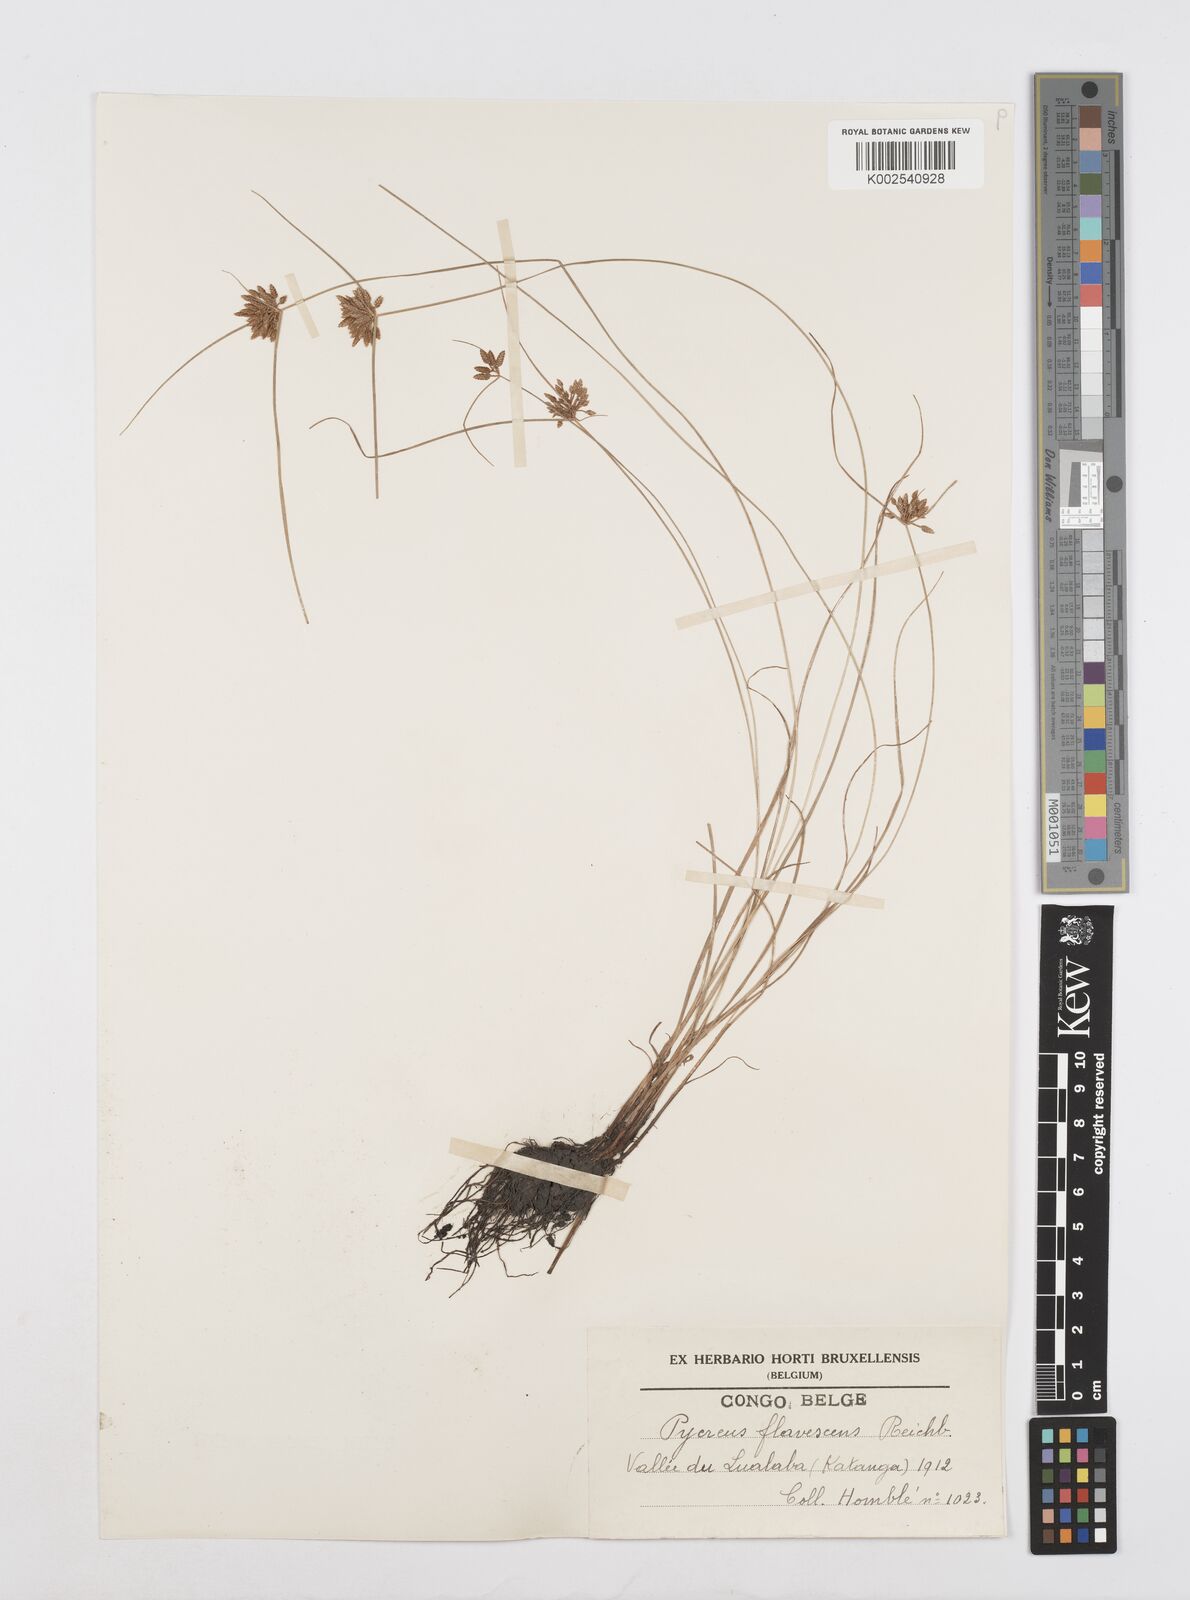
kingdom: Plantae
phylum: Tracheophyta
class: Liliopsida
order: Poales
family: Cyperaceae
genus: Cyperus
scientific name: Cyperus flavescens
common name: Yellow galingale
